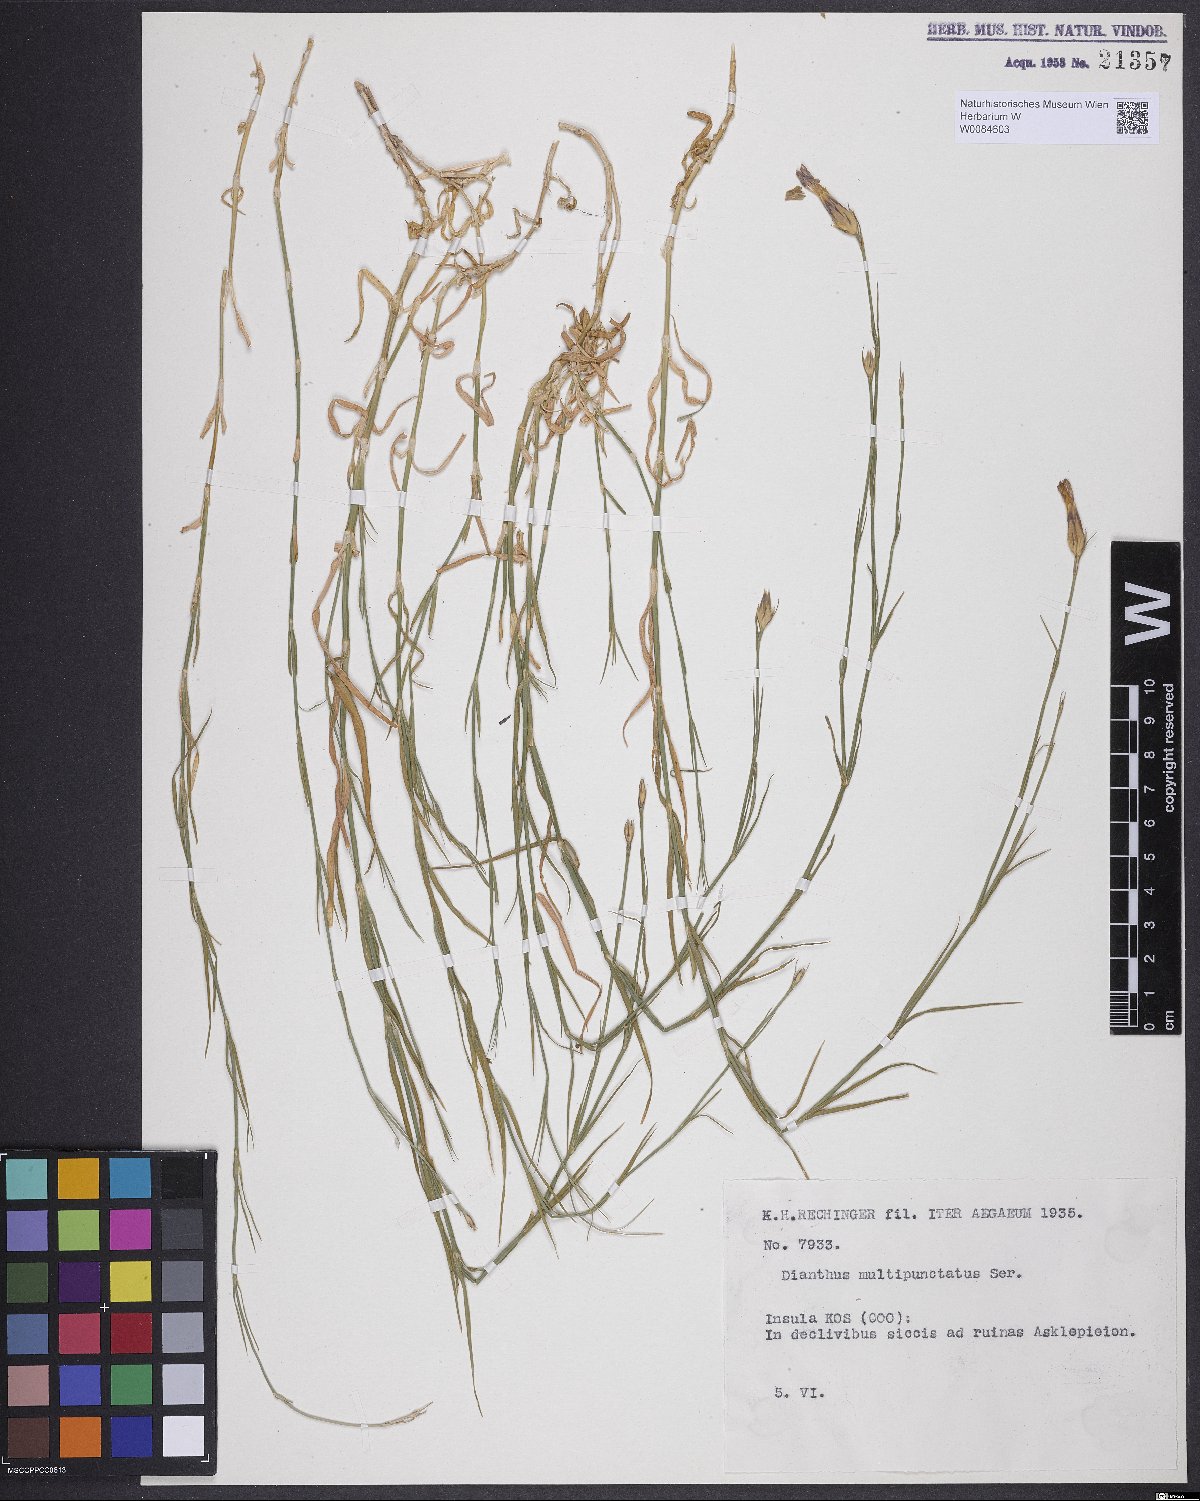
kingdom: Plantae
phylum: Tracheophyta
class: Magnoliopsida
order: Caryophyllales
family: Caryophyllaceae
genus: Dianthus
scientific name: Dianthus strictus
